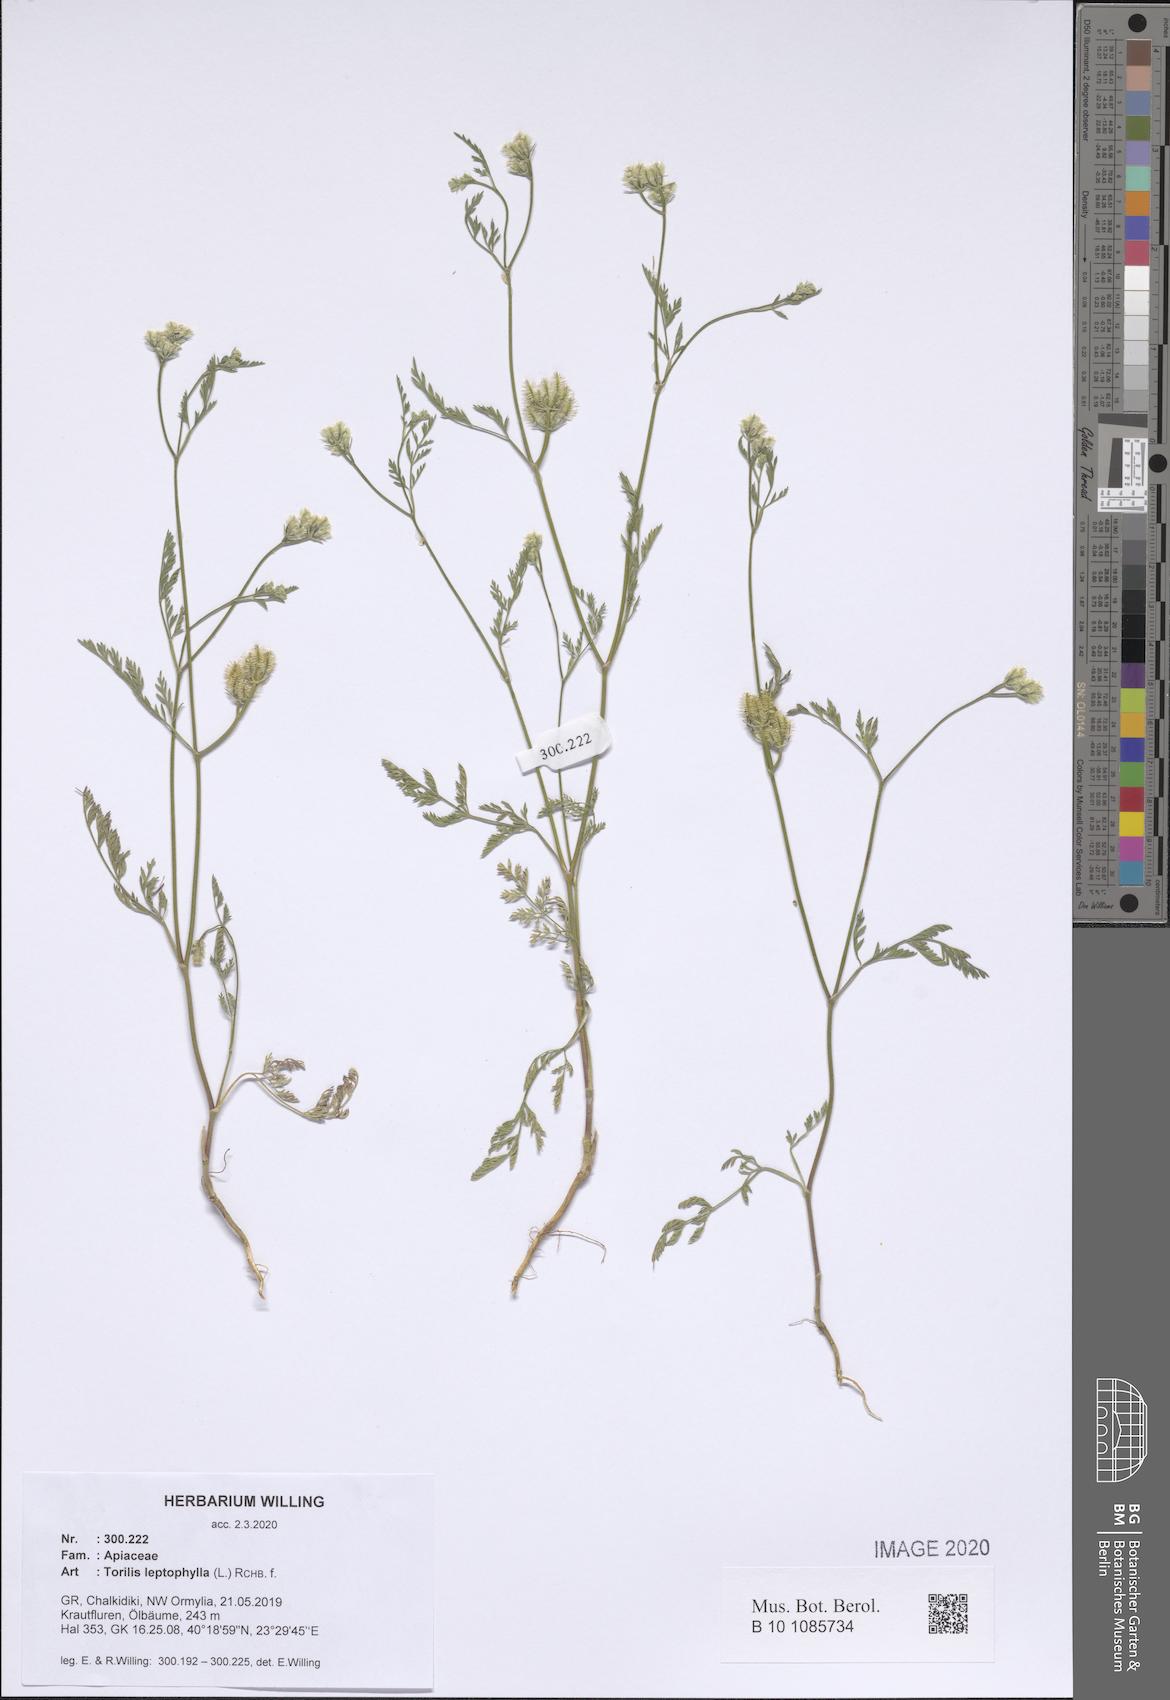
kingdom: Plantae
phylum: Tracheophyta
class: Magnoliopsida
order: Apiales
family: Apiaceae
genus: Torilis
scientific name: Torilis leptophylla
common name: Bristlefruit hedgeparsley
